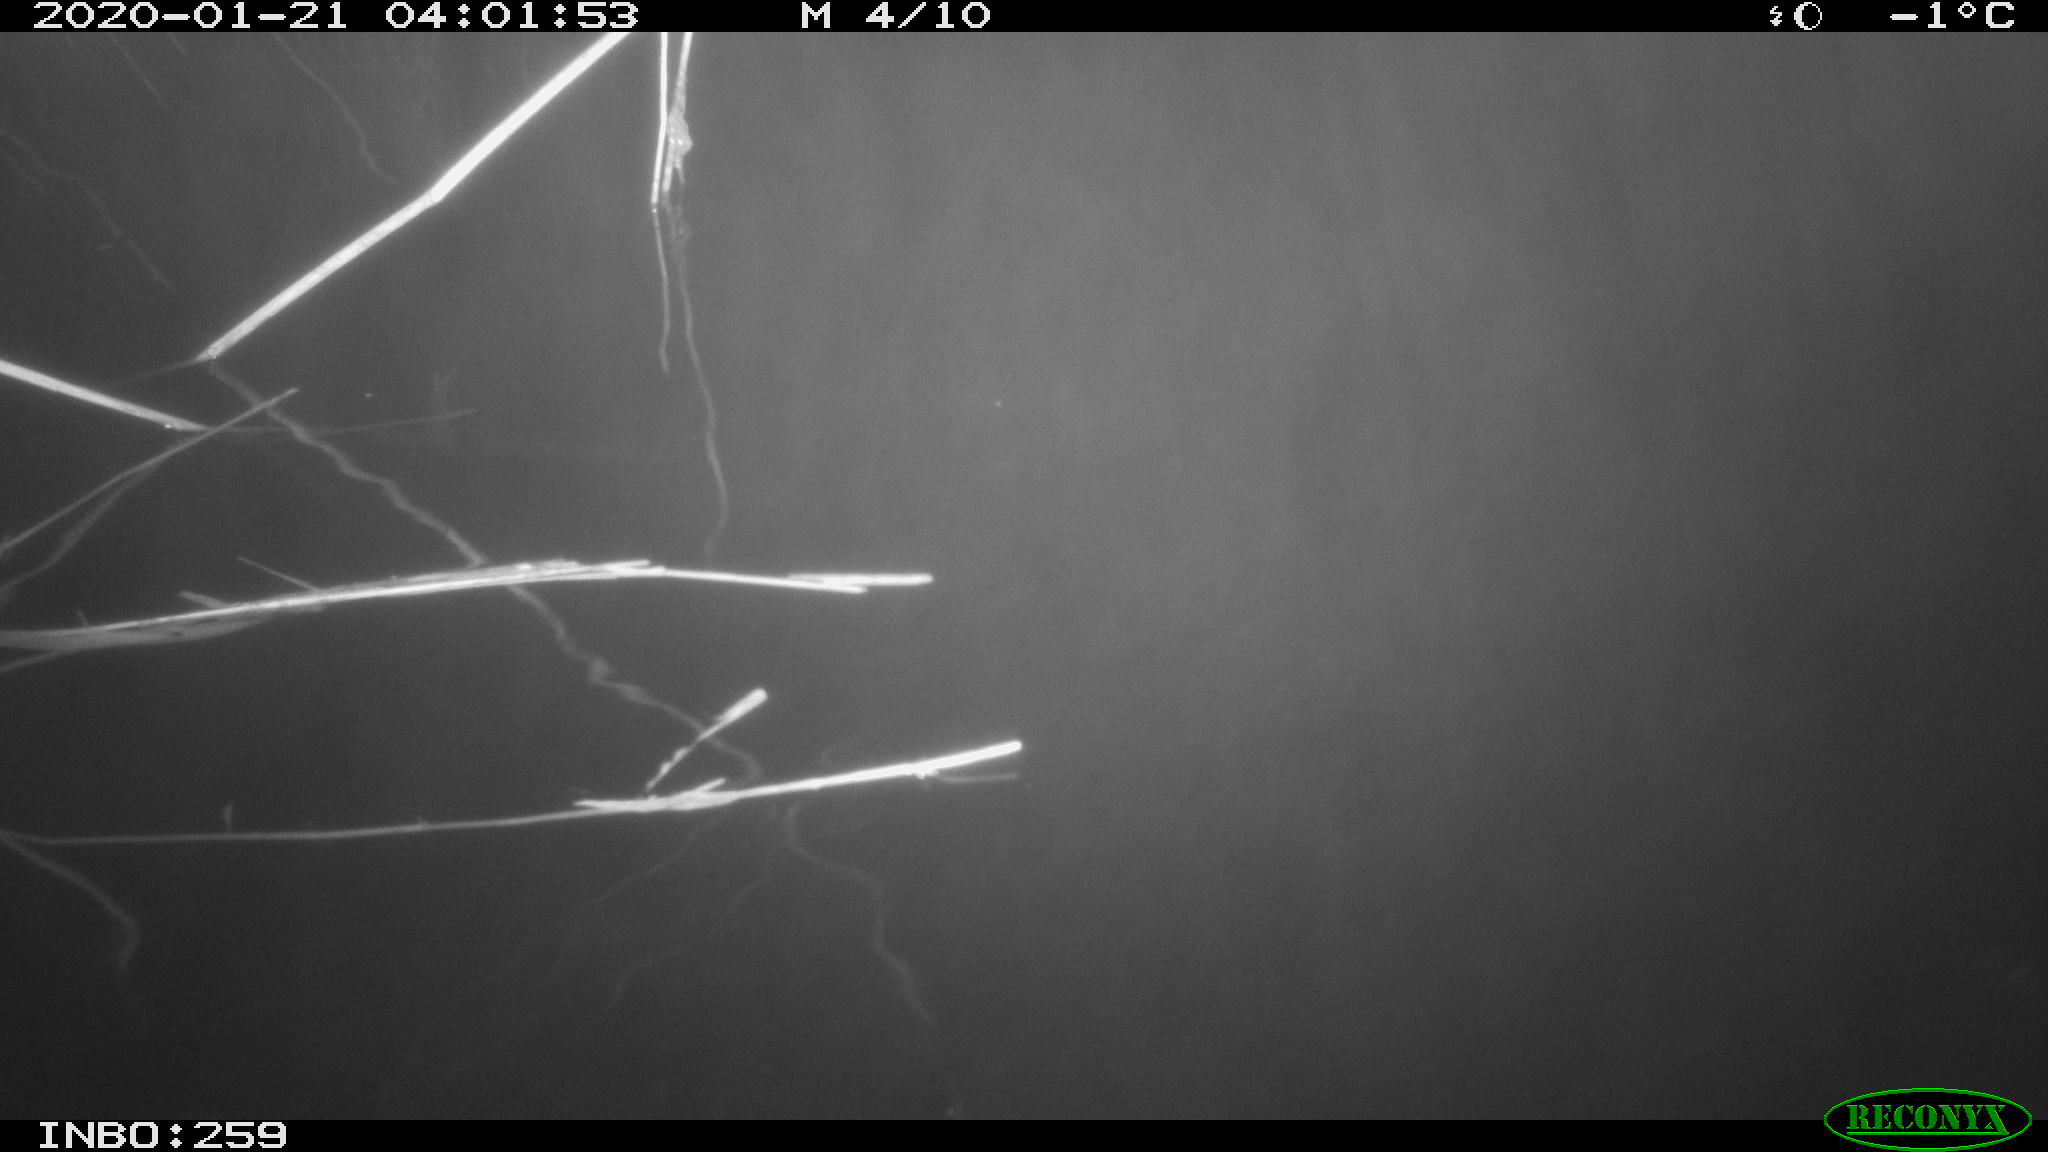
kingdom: Animalia
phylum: Chordata
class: Mammalia
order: Rodentia
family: Cricetidae
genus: Ondatra
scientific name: Ondatra zibethicus
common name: Muskrat
